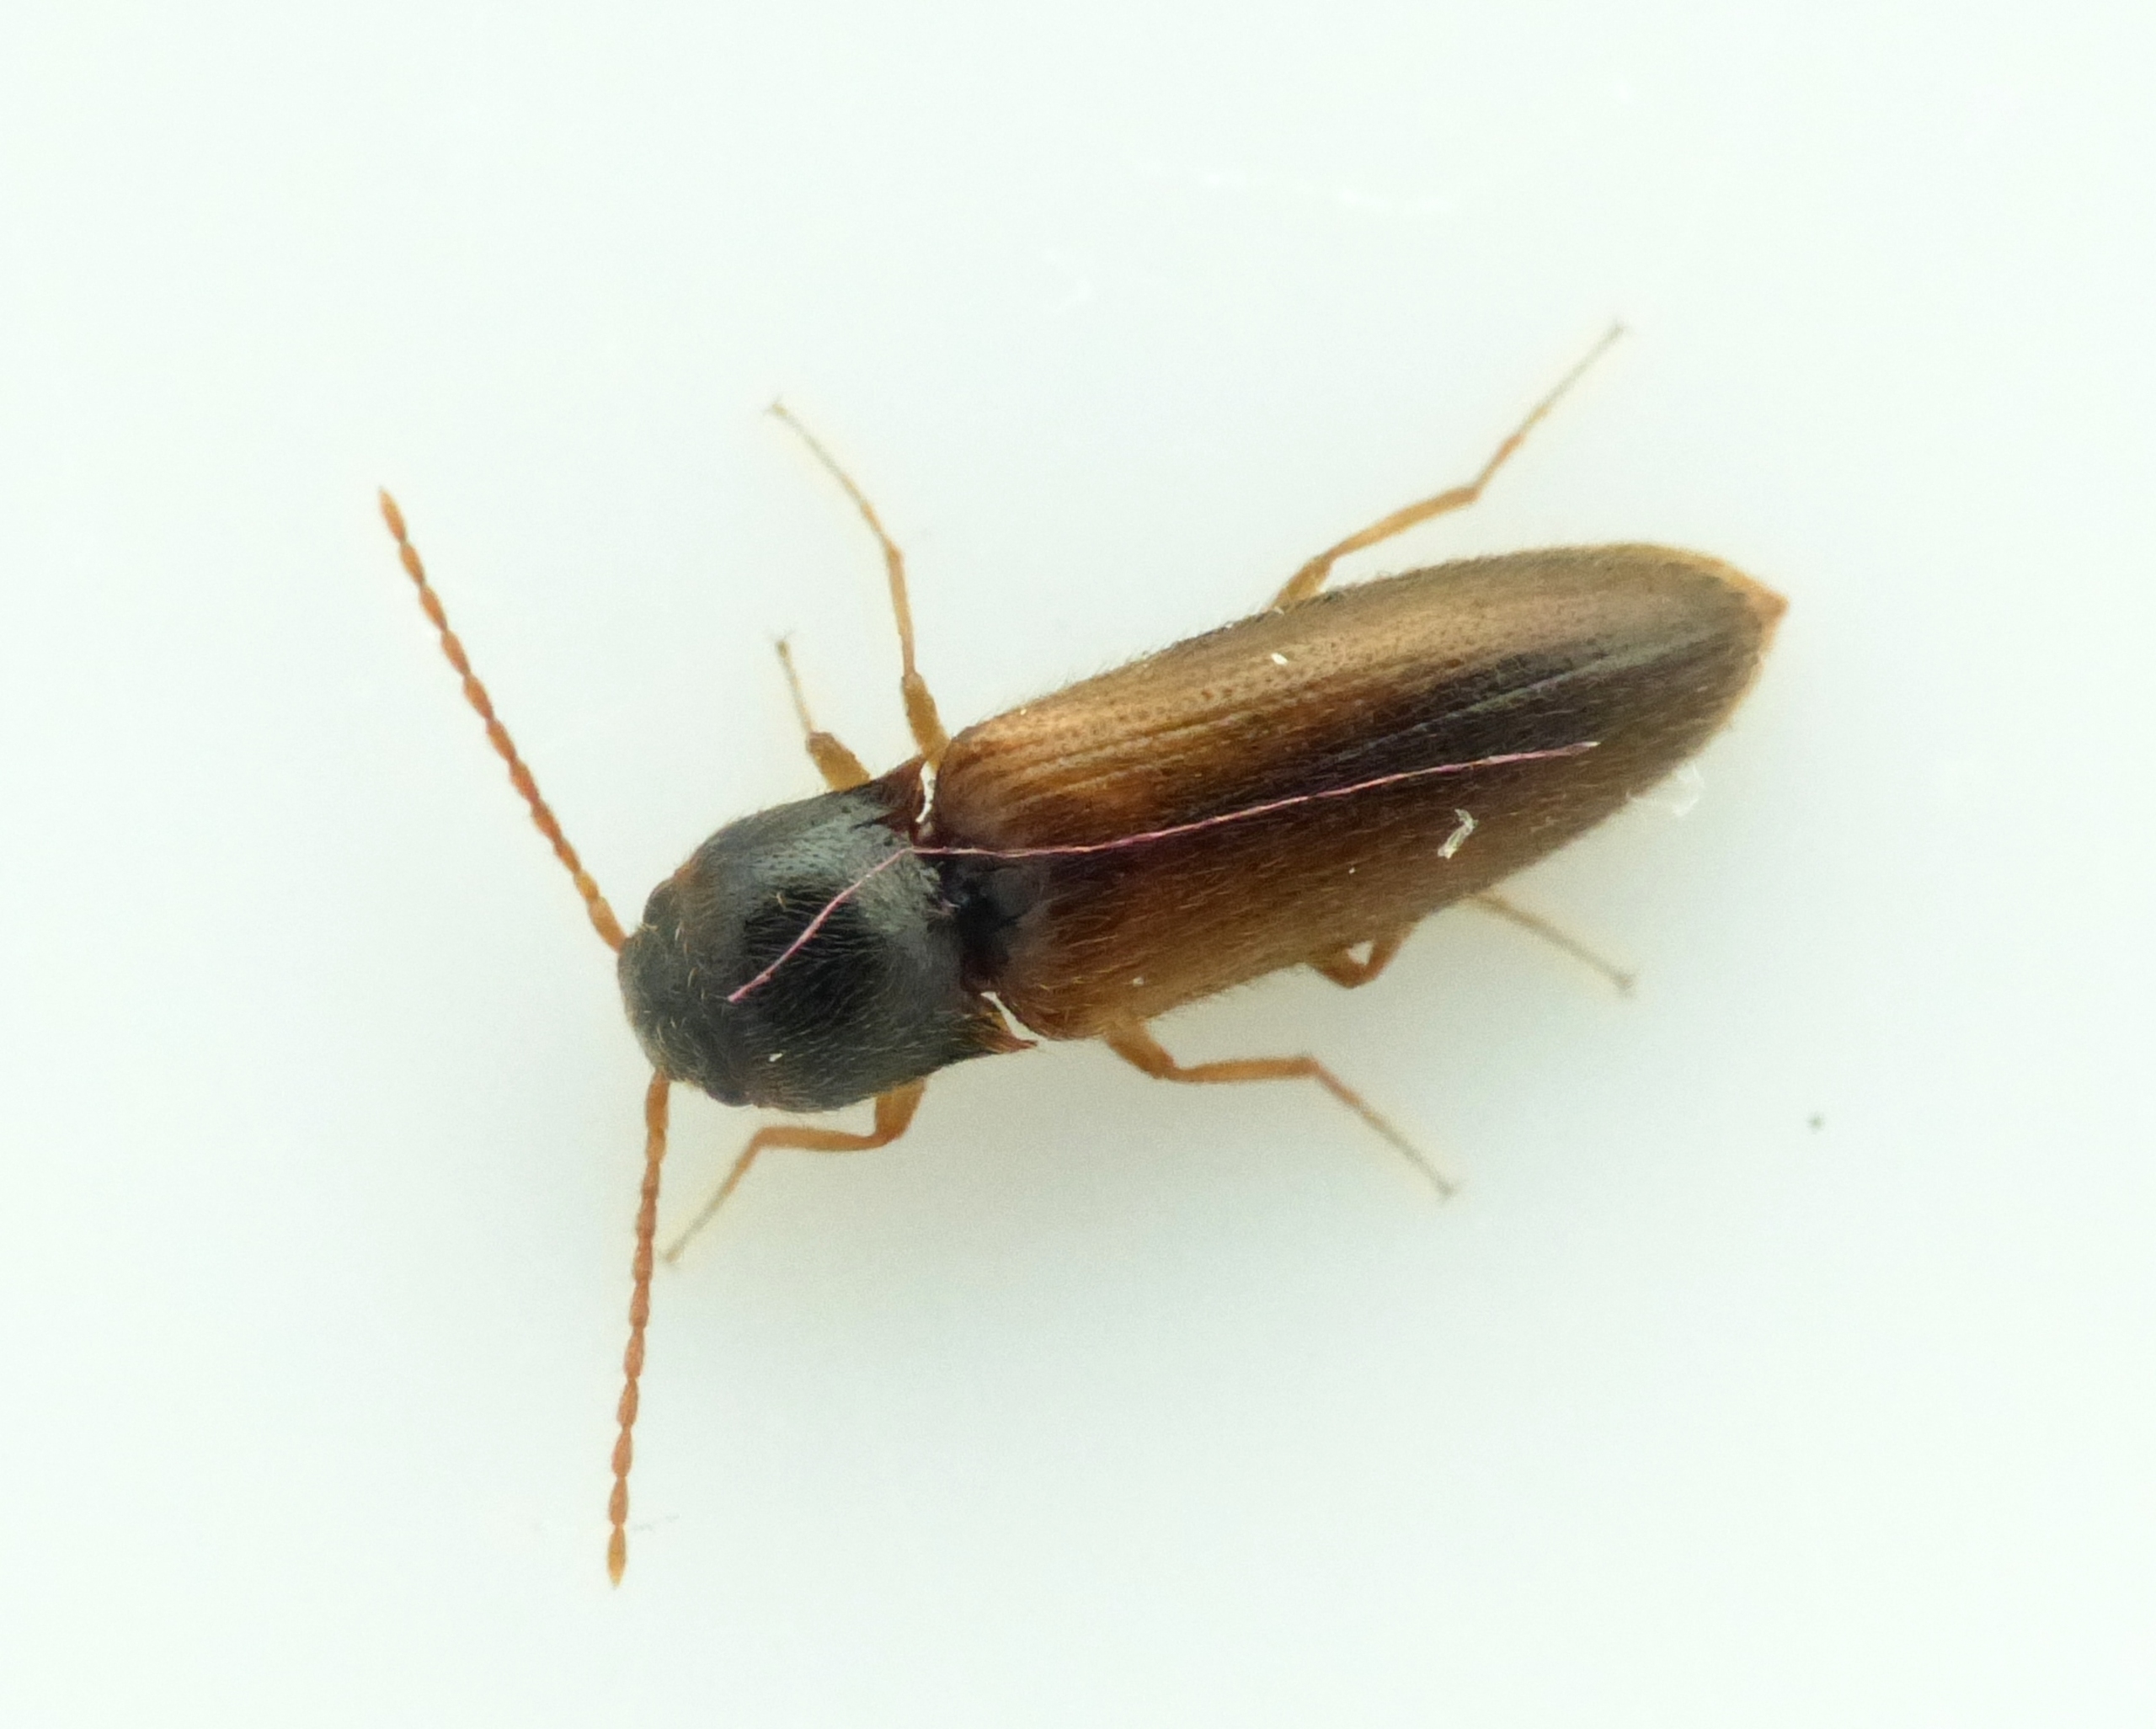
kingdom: Animalia
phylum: Arthropoda
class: Insecta
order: Coleoptera
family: Elateridae
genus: Adrastus
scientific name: Adrastus pallens
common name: Almindelig marksmælder
